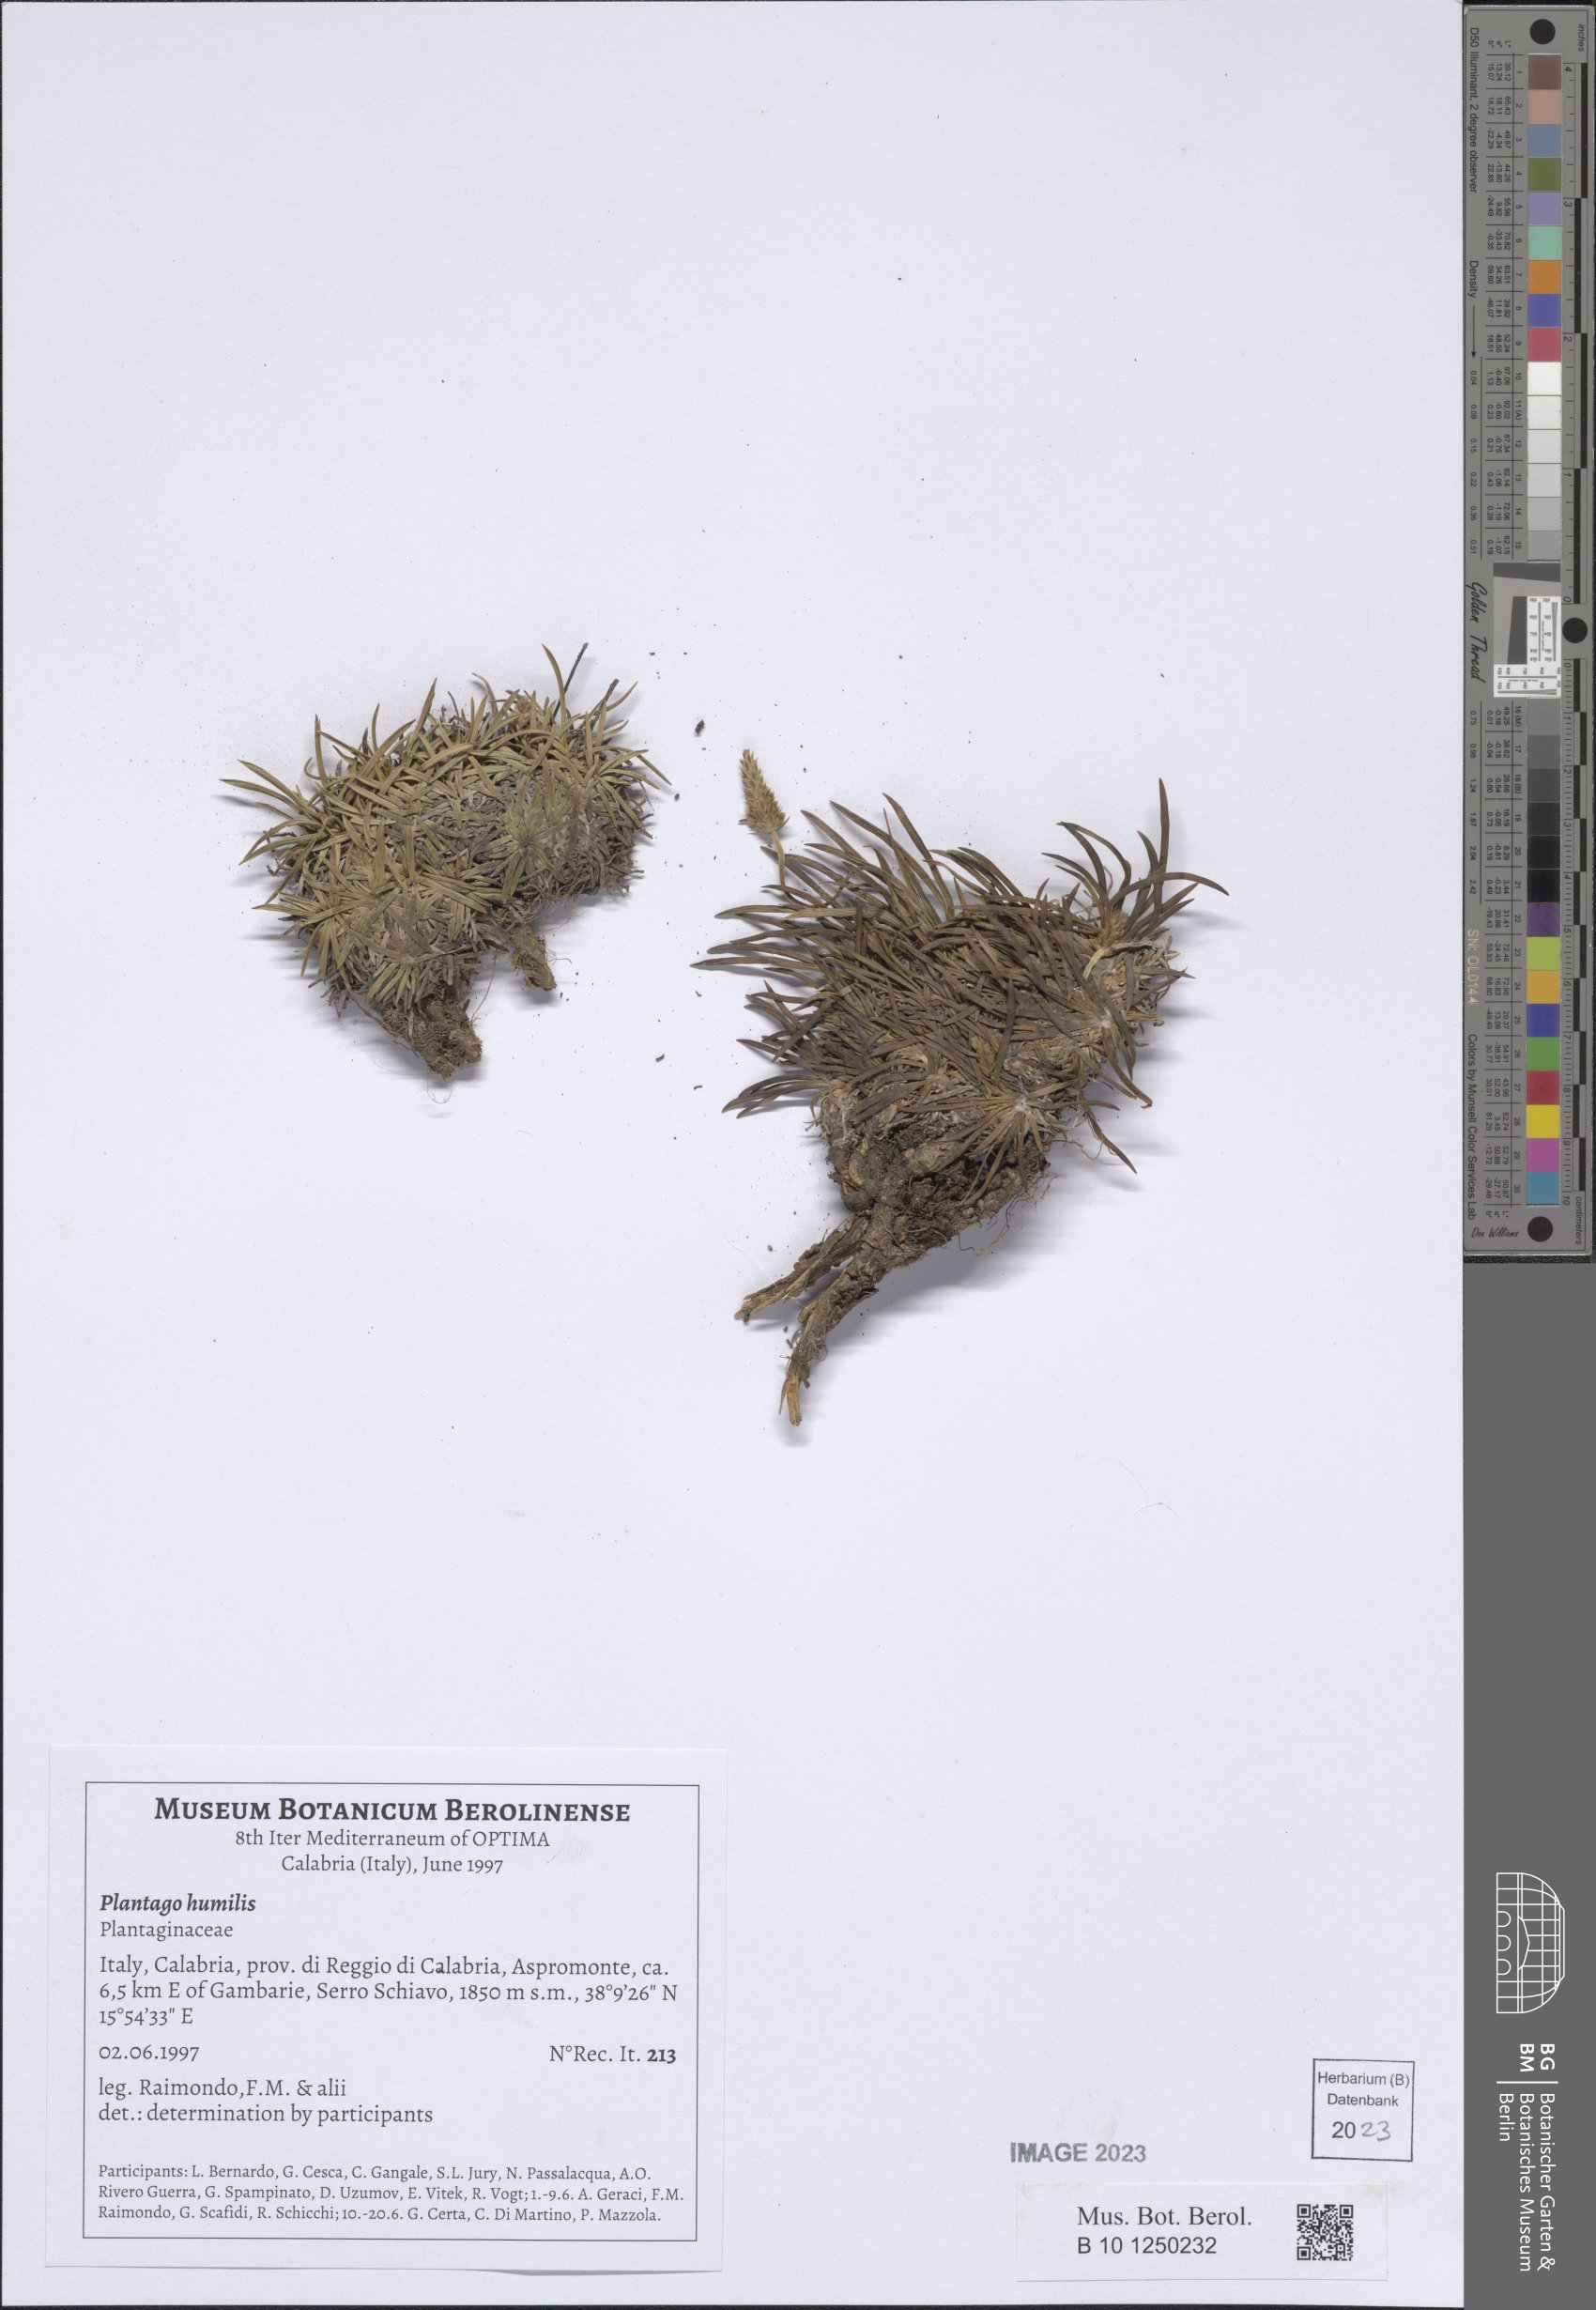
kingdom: Plantae
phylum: Tracheophyta
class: Magnoliopsida
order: Lamiales
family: Plantaginaceae
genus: Plantago
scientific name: Plantago subulata
